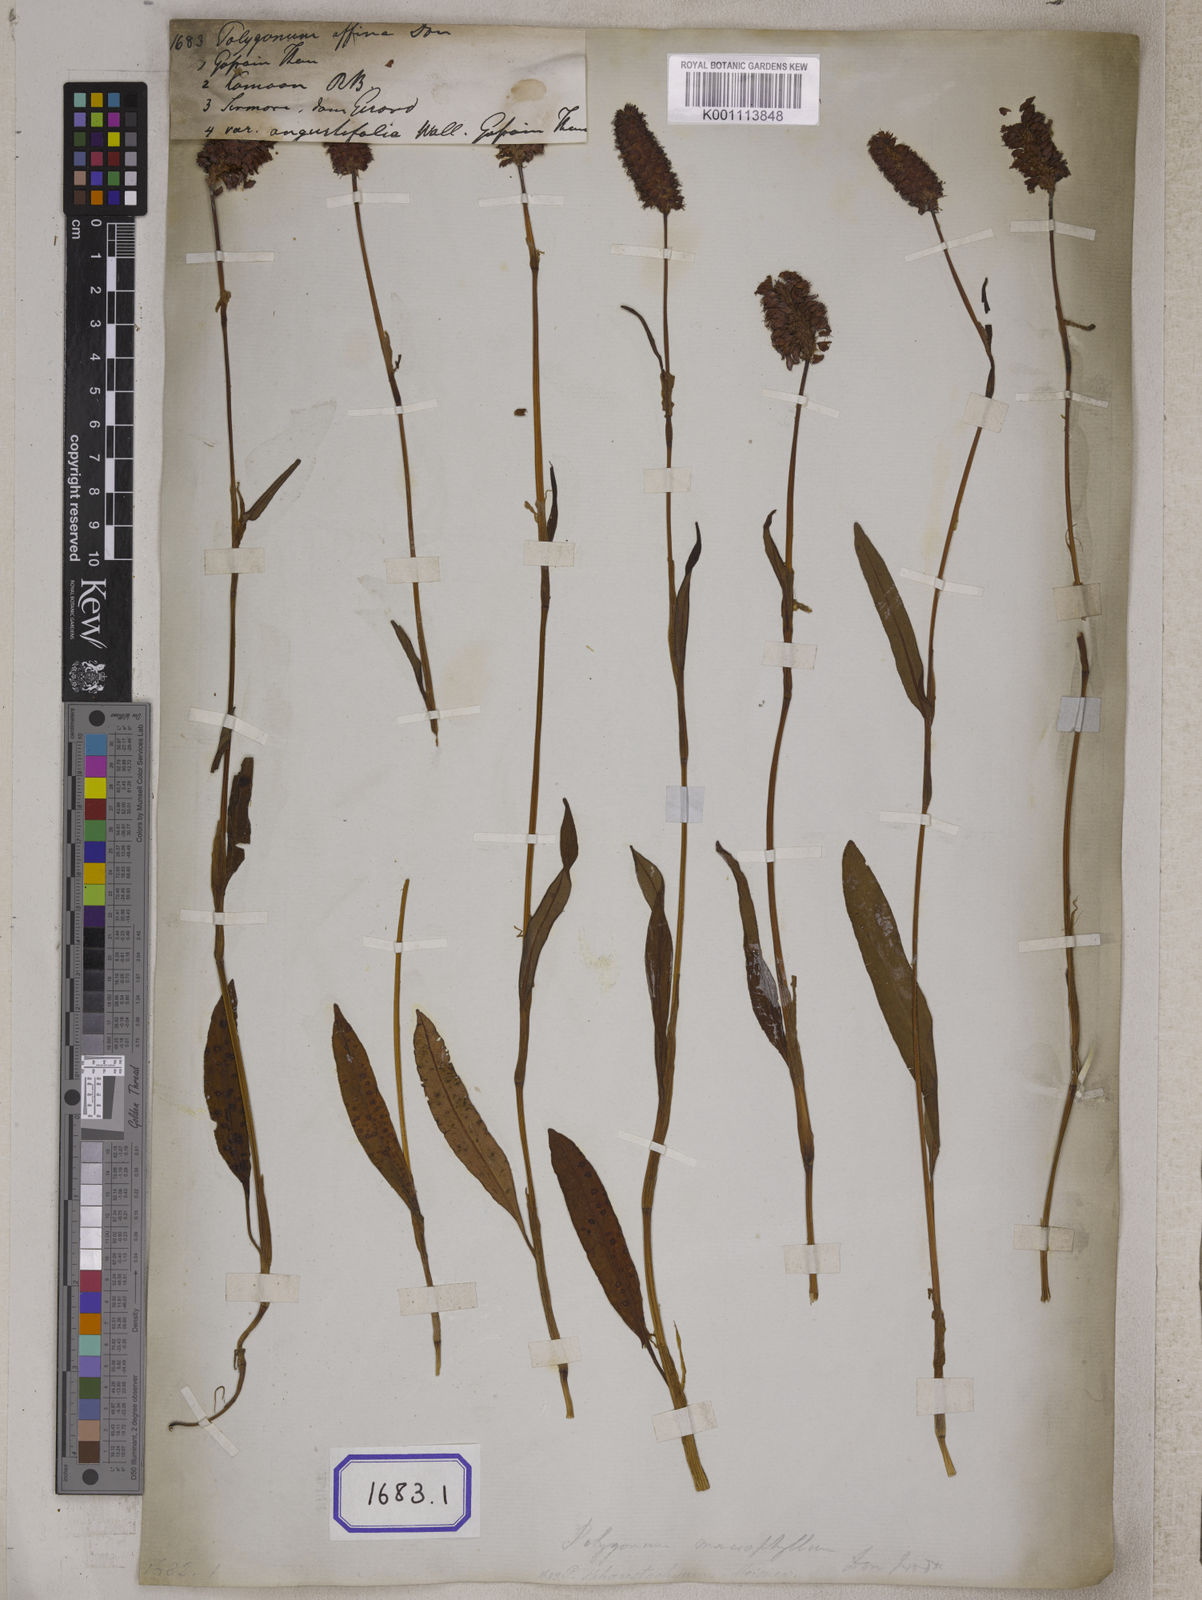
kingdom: Plantae
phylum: Tracheophyta
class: Magnoliopsida
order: Caryophyllales
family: Polygonaceae
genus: Bistorta
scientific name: Bistorta affinis
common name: Himalayan fleeceflower
